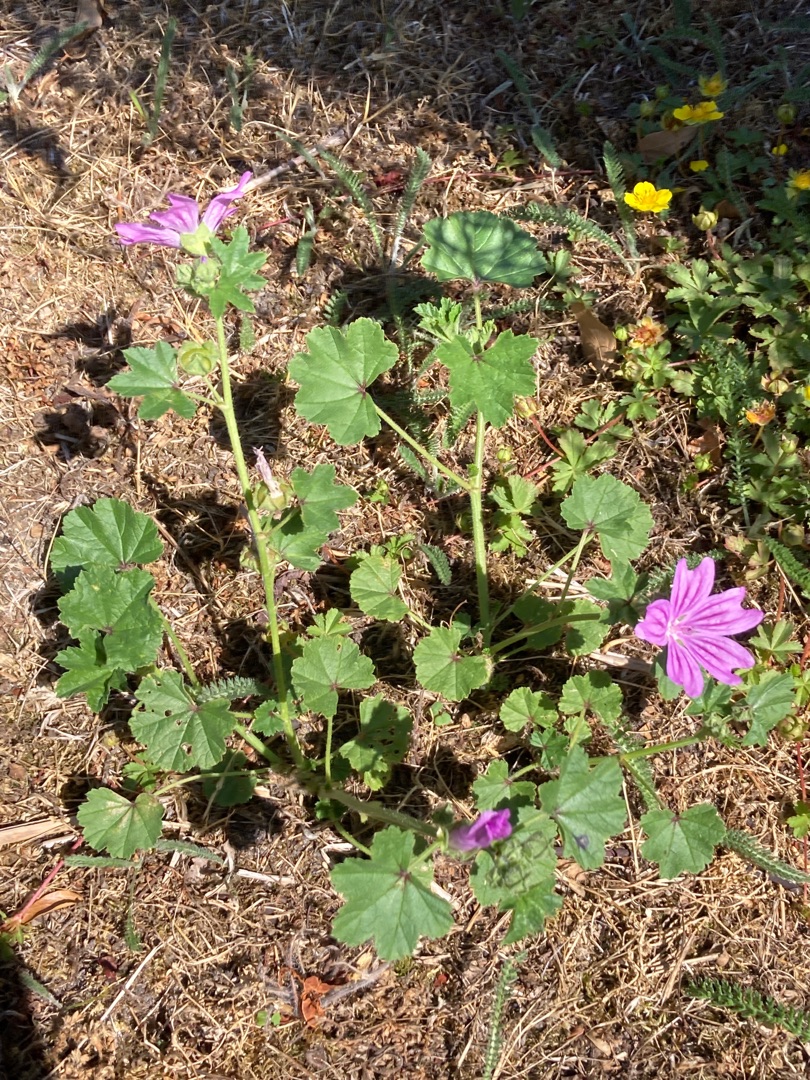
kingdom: Plantae
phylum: Tracheophyta
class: Magnoliopsida
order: Malvales
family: Malvaceae
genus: Malva
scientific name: Malva sylvestris
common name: Almindelig katost
